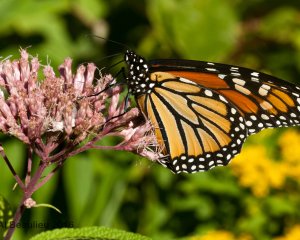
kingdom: Animalia
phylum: Arthropoda
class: Insecta
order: Lepidoptera
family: Nymphalidae
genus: Danaus
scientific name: Danaus plexippus
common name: Monarch
